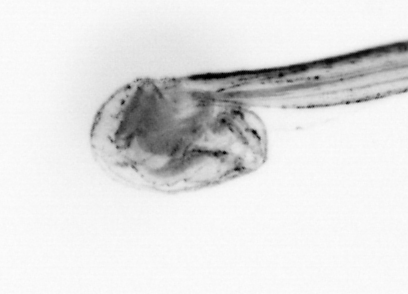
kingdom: Animalia
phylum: Chordata
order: Copelata
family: Fritillariidae
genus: Appendicularia
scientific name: Appendicularia
